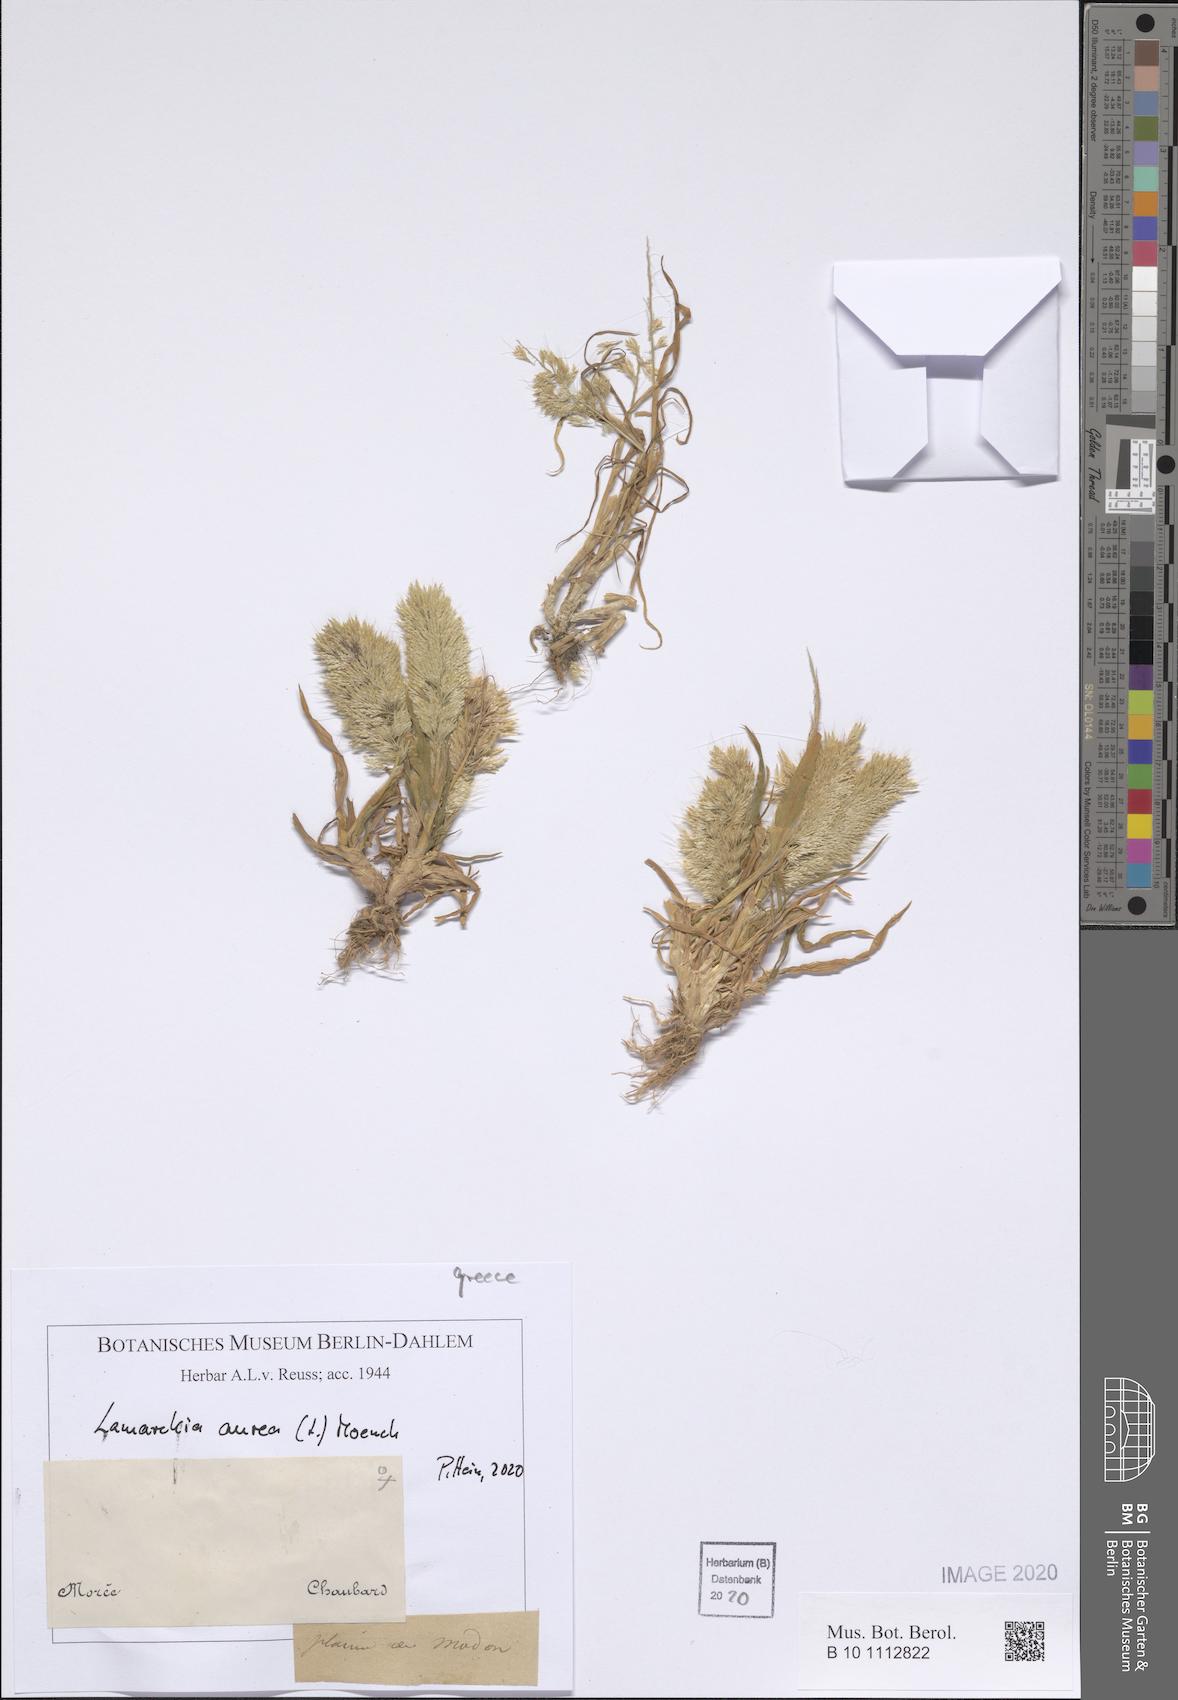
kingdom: Plantae
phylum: Tracheophyta
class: Liliopsida
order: Poales
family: Poaceae
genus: Lamarckia
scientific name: Lamarckia aurea
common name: Golden dog's-tail
